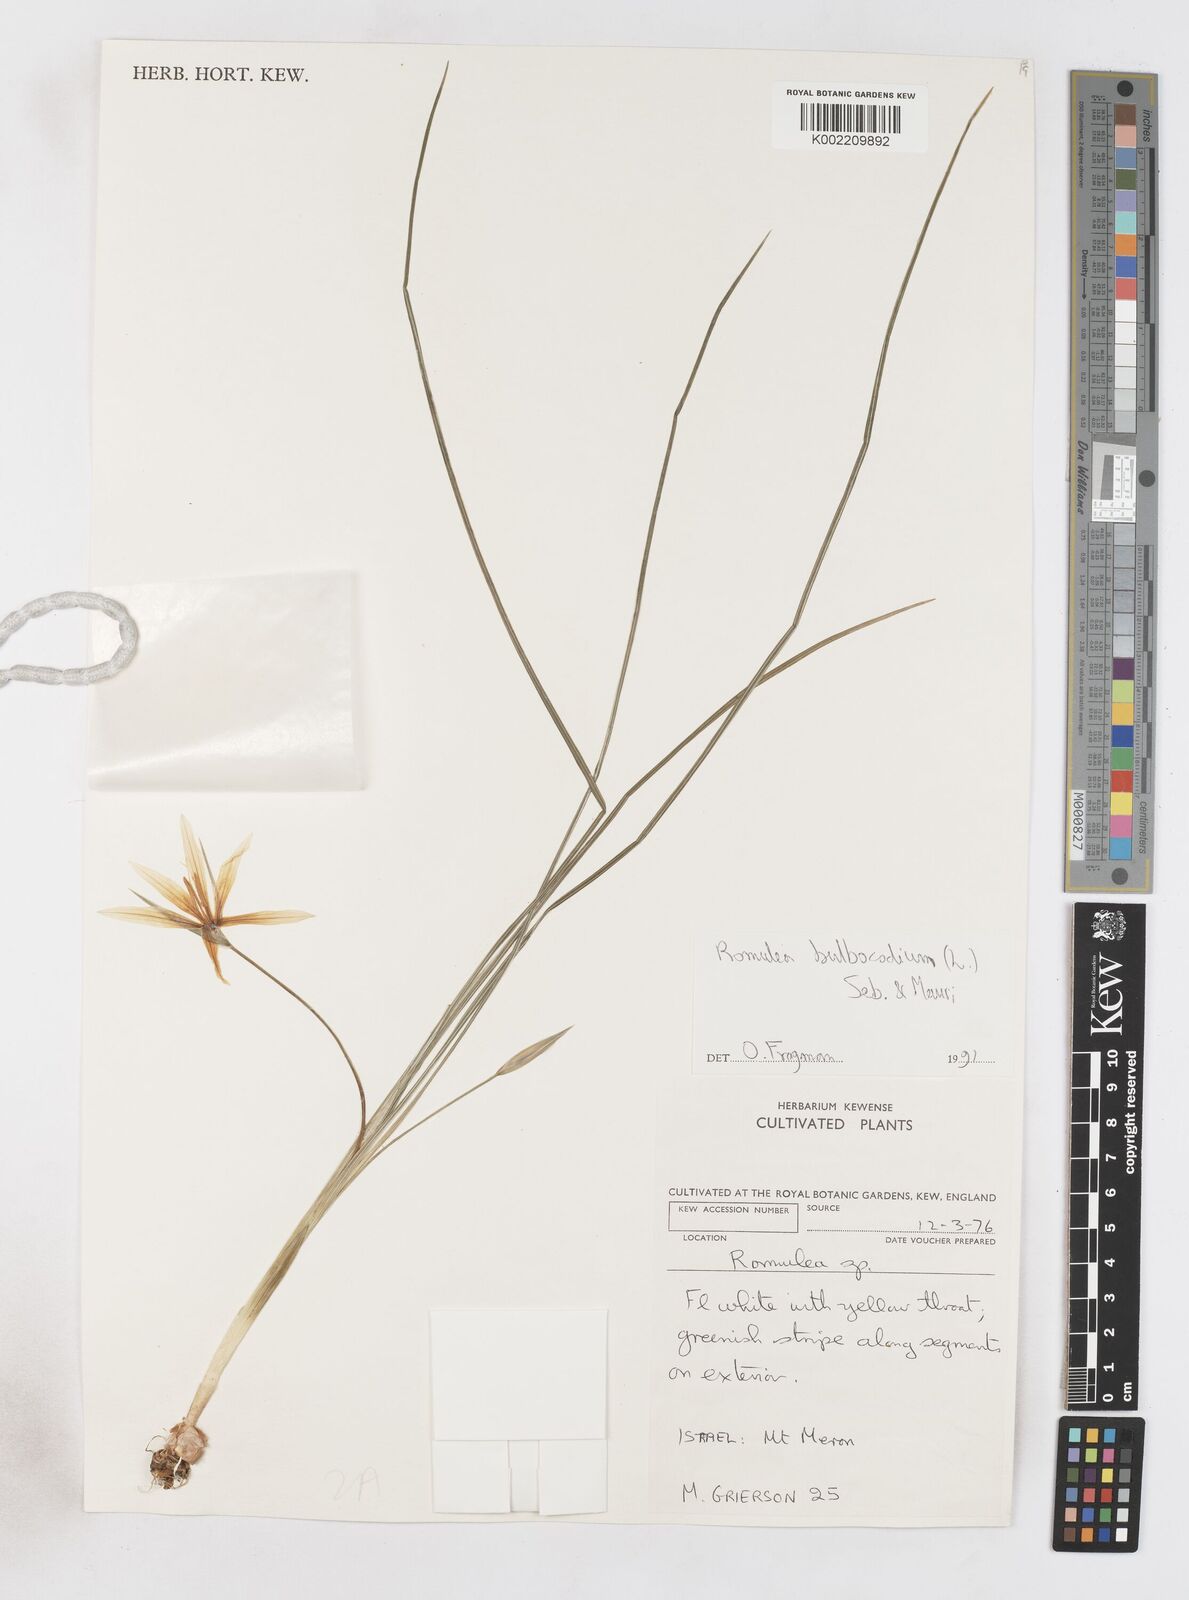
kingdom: Plantae
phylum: Tracheophyta
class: Liliopsida
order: Asparagales
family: Iridaceae
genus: Romulea
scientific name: Romulea bulbocodium
